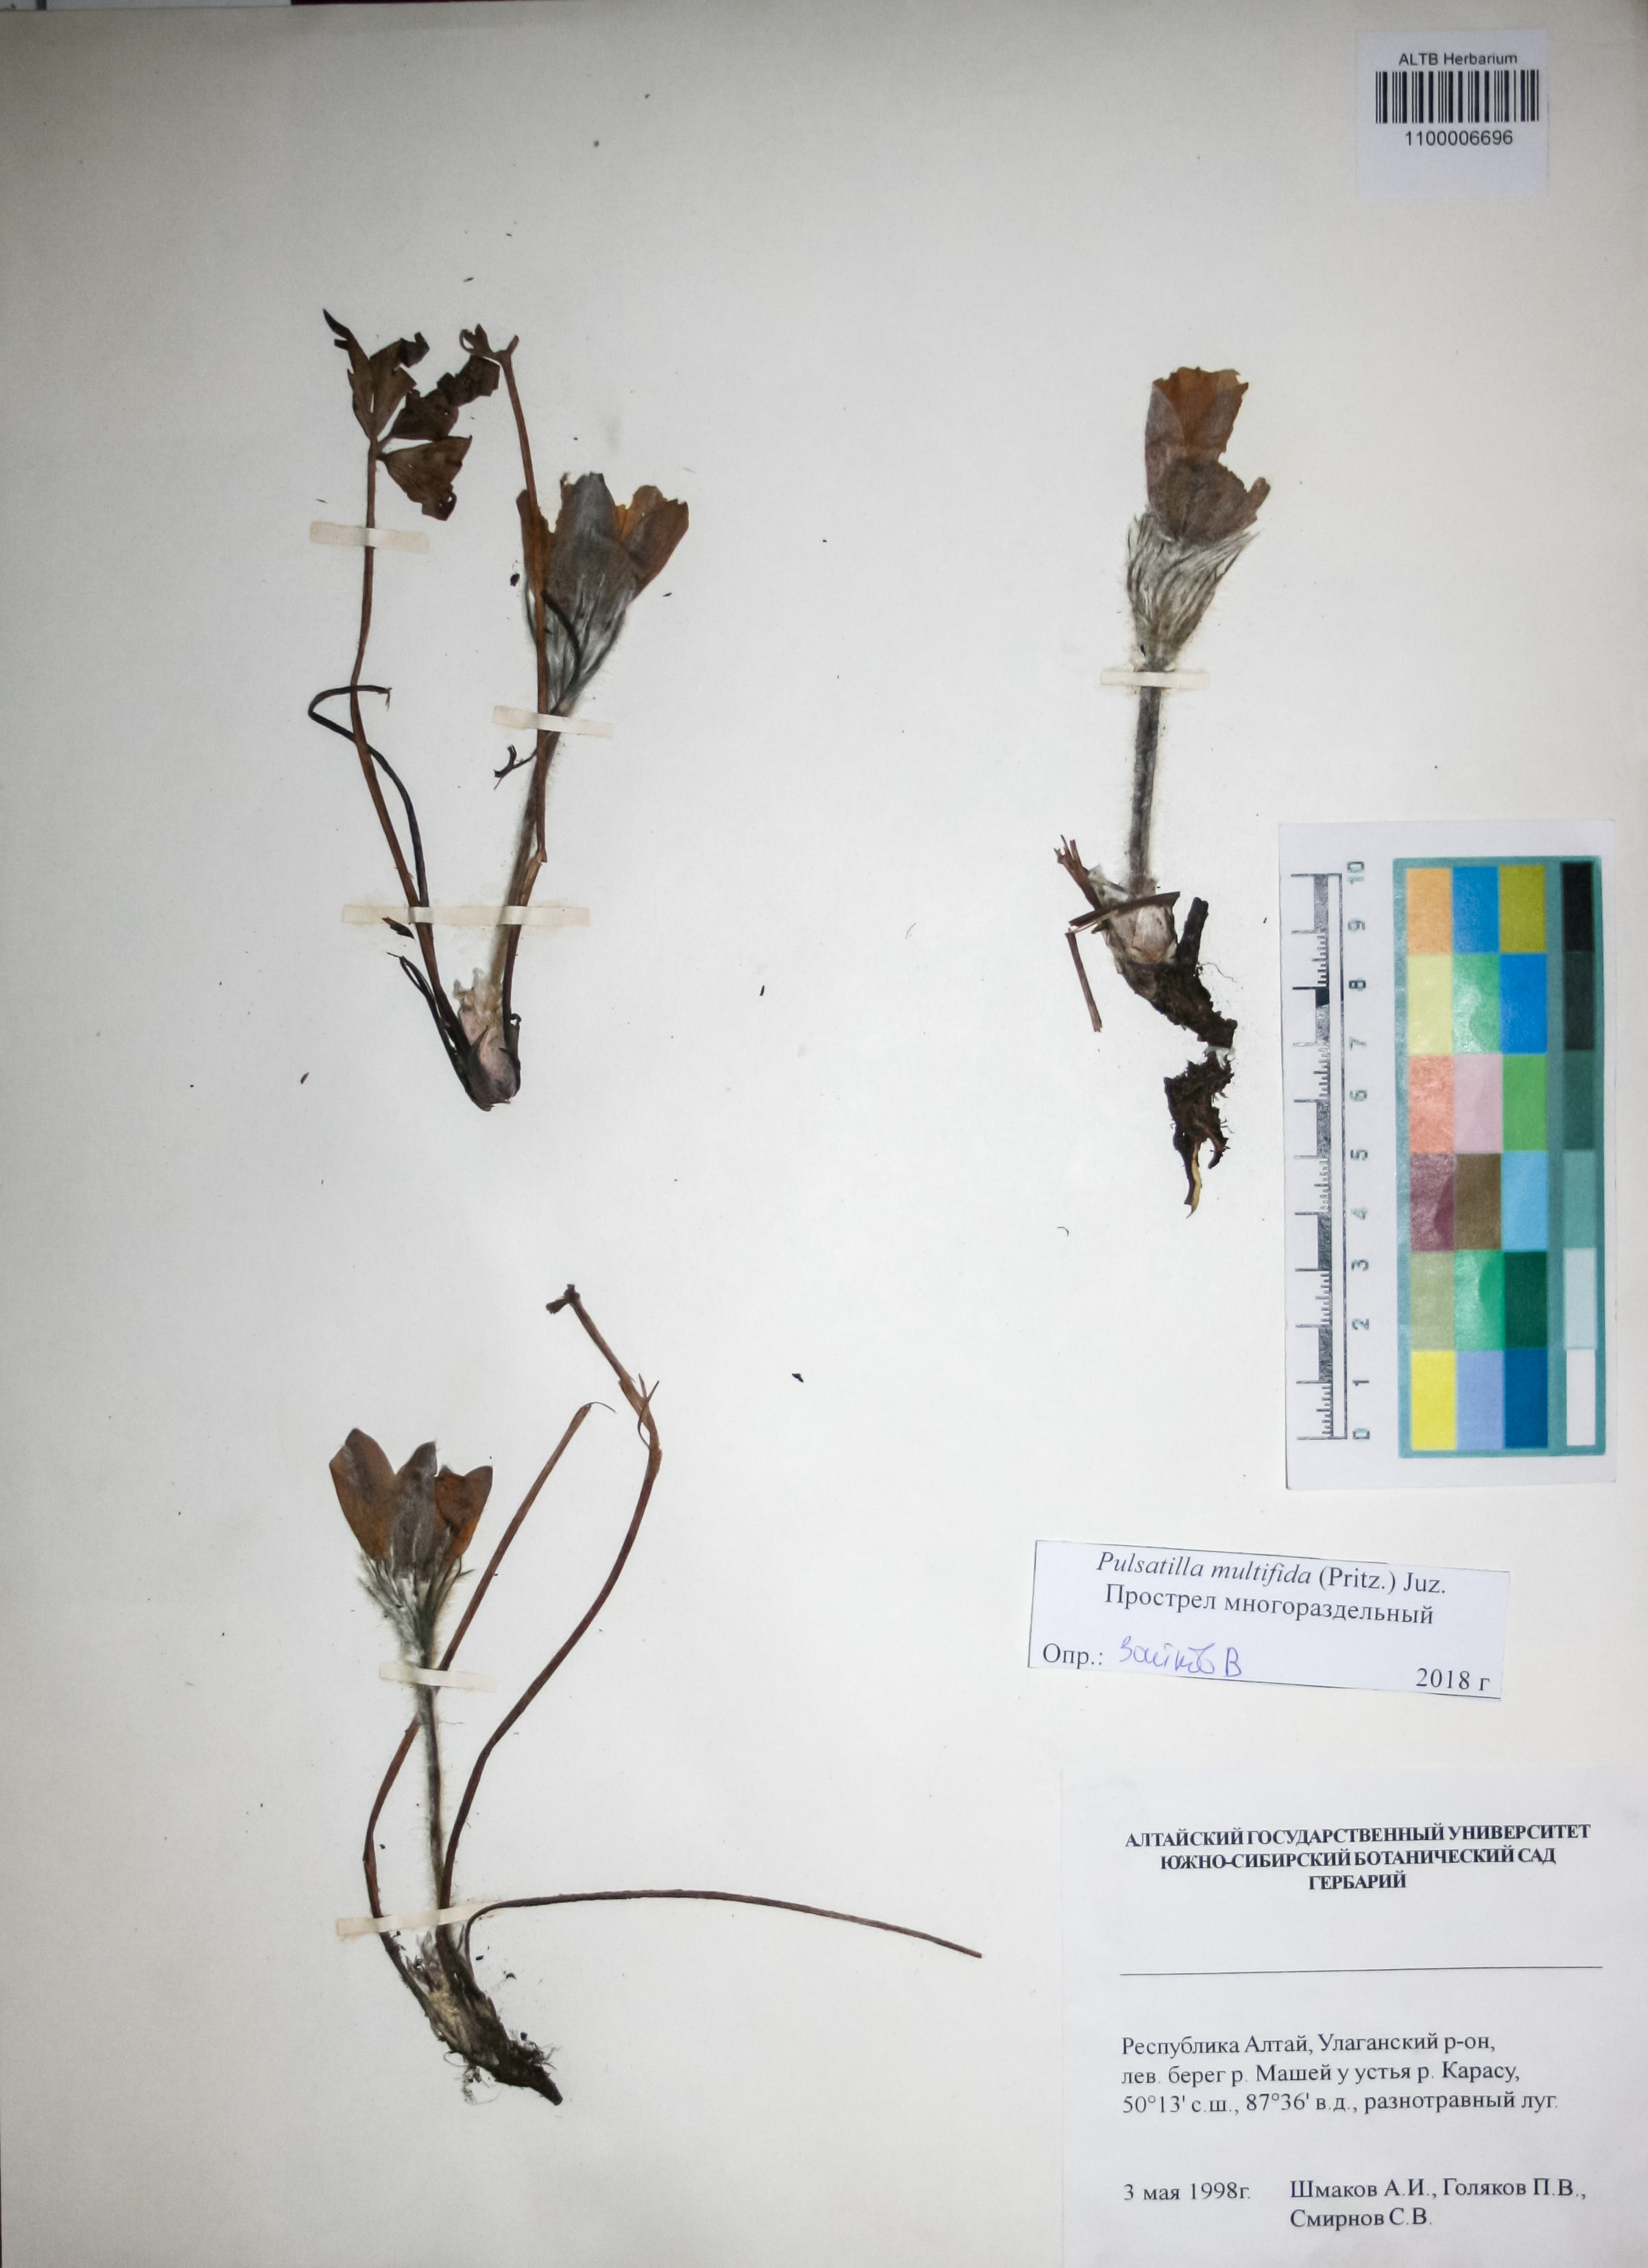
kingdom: Plantae
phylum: Tracheophyta
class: Magnoliopsida
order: Ranunculales
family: Ranunculaceae
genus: Pulsatilla
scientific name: Pulsatilla patens
